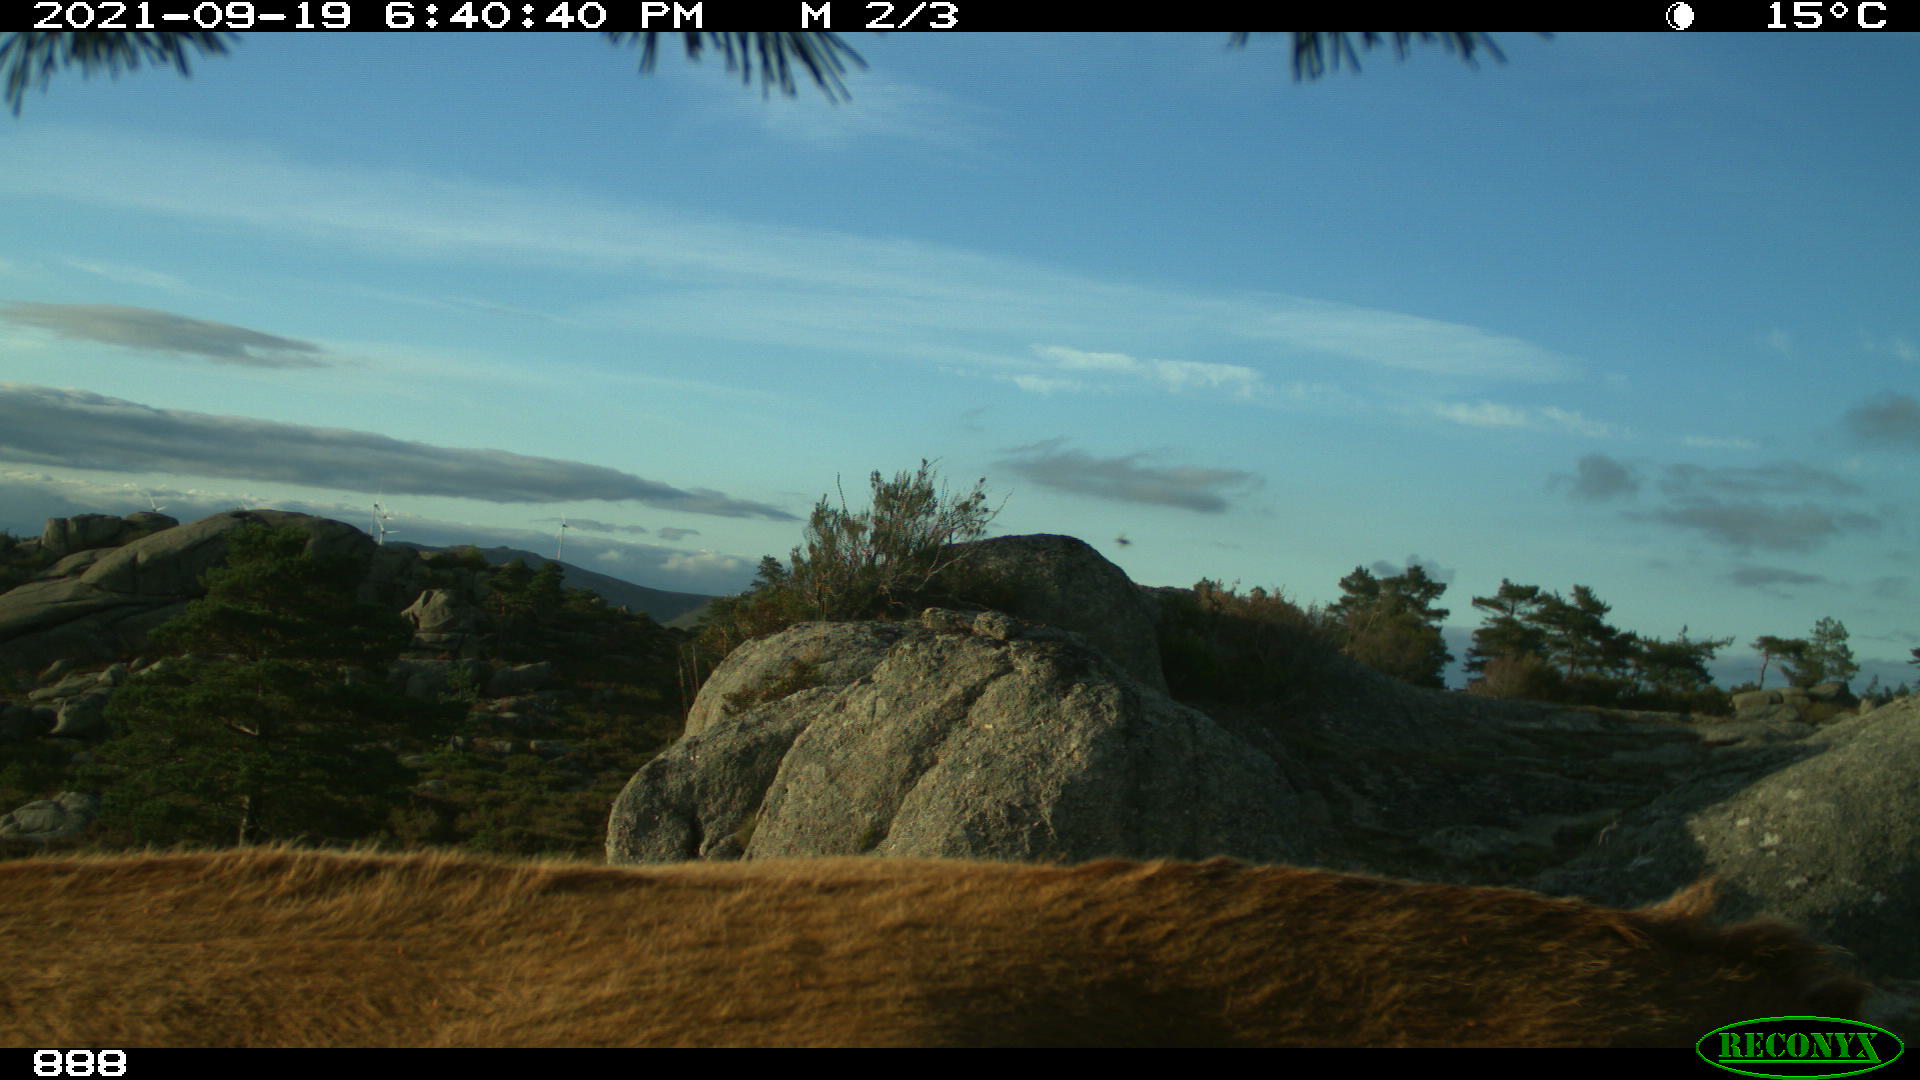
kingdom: Animalia
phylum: Chordata
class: Mammalia
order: Artiodactyla
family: Bovidae
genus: Bos
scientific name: Bos taurus
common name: Domesticated cattle
